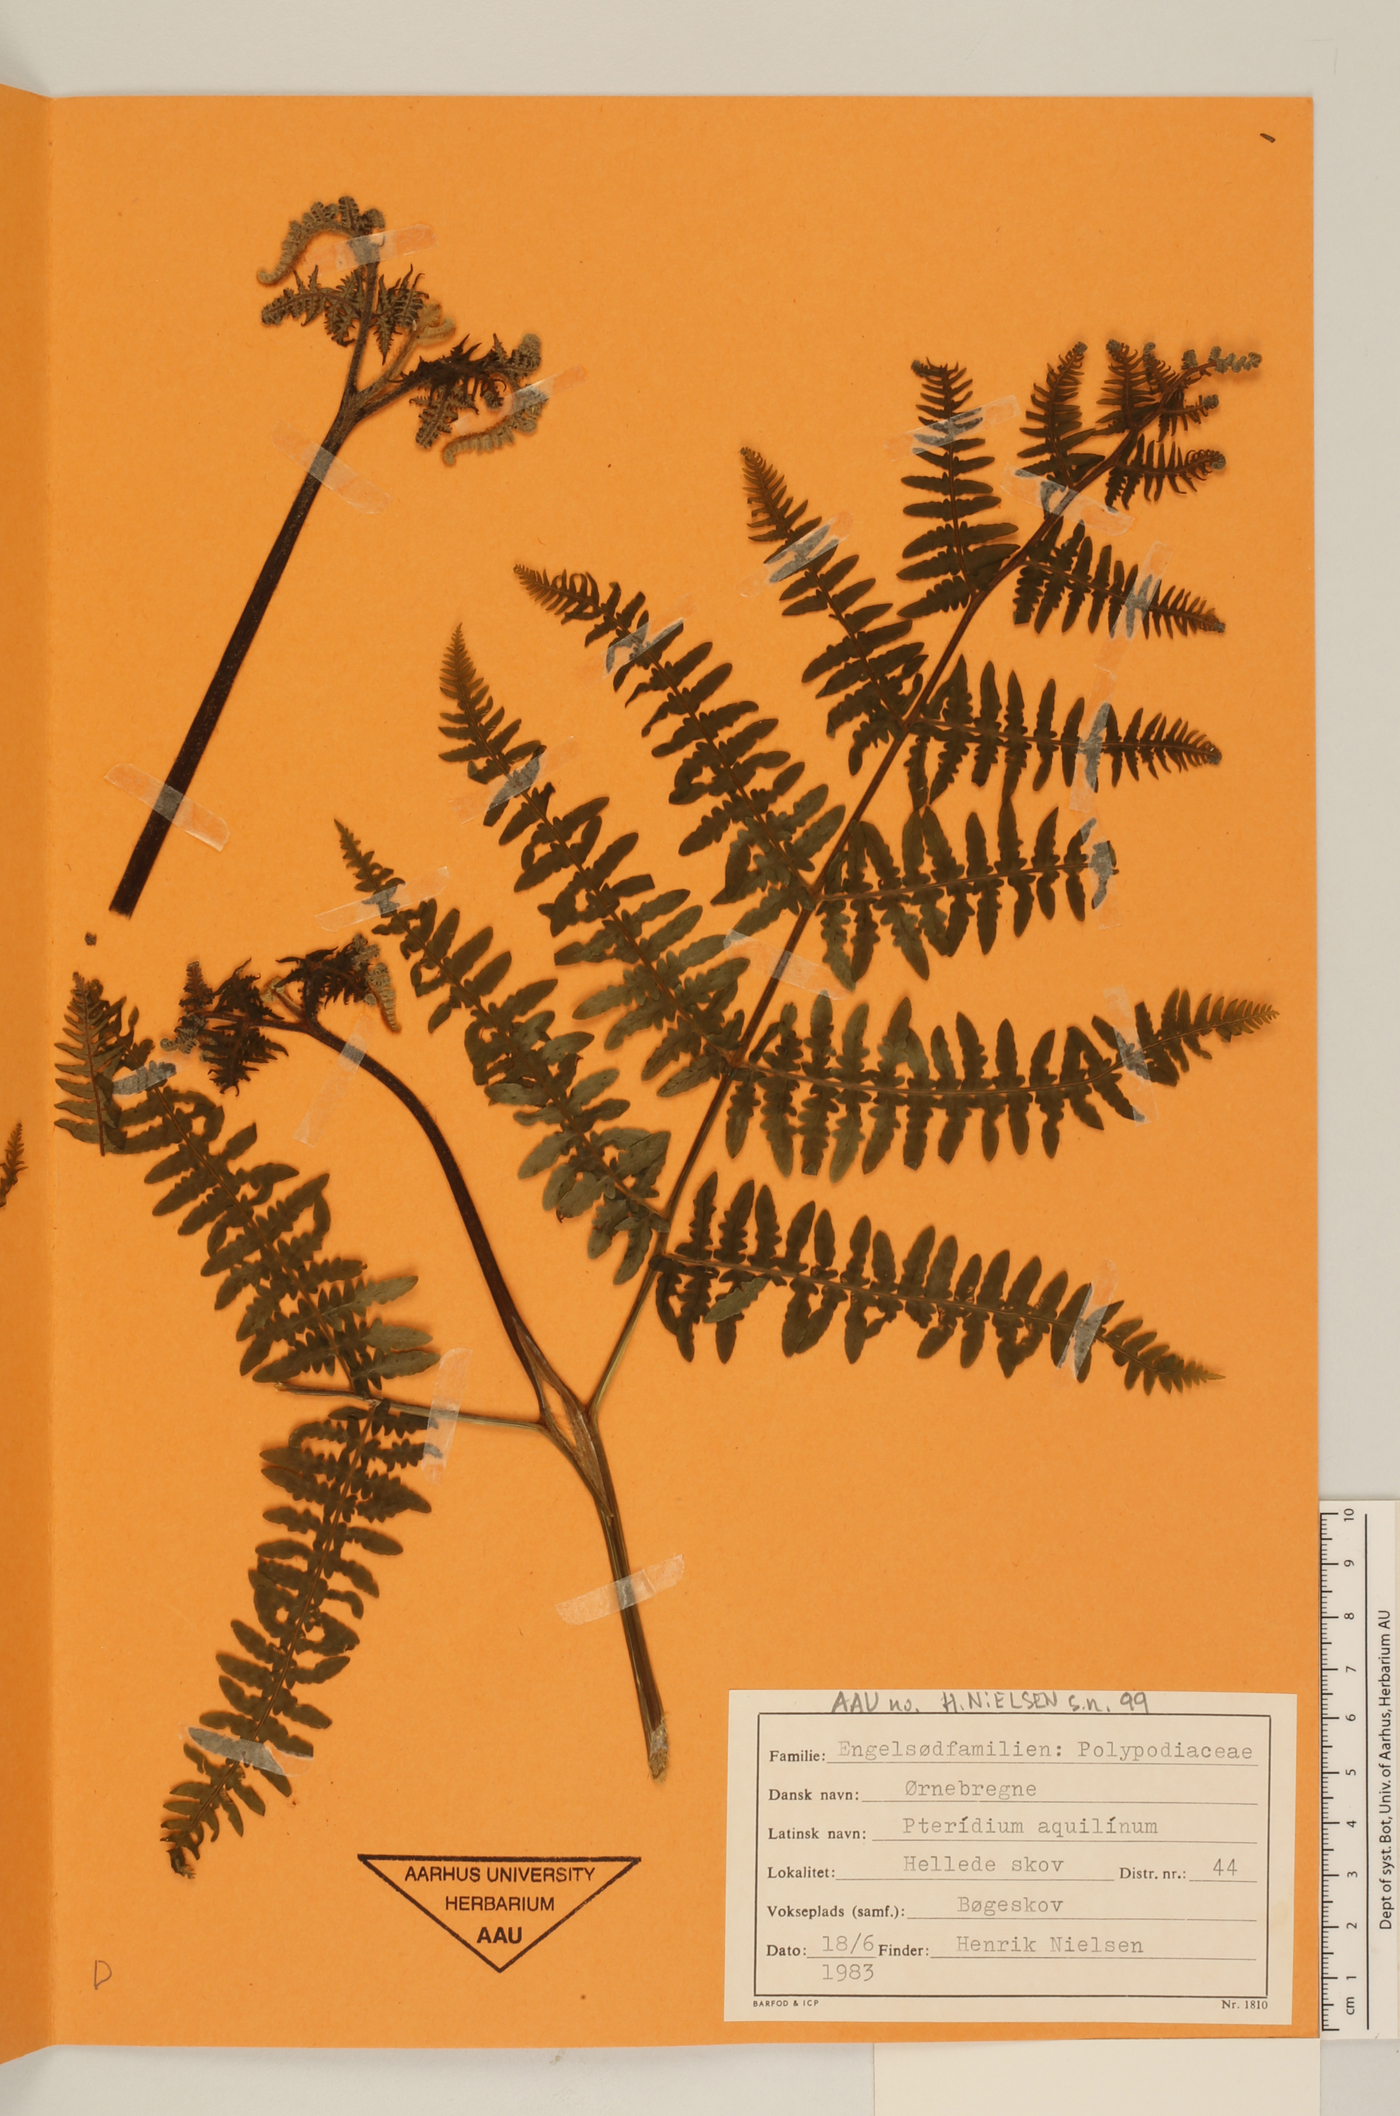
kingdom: Plantae
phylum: Tracheophyta
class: Polypodiopsida
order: Polypodiales
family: Dennstaedtiaceae
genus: Pteridium
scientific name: Pteridium aquilinum
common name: Bracken
